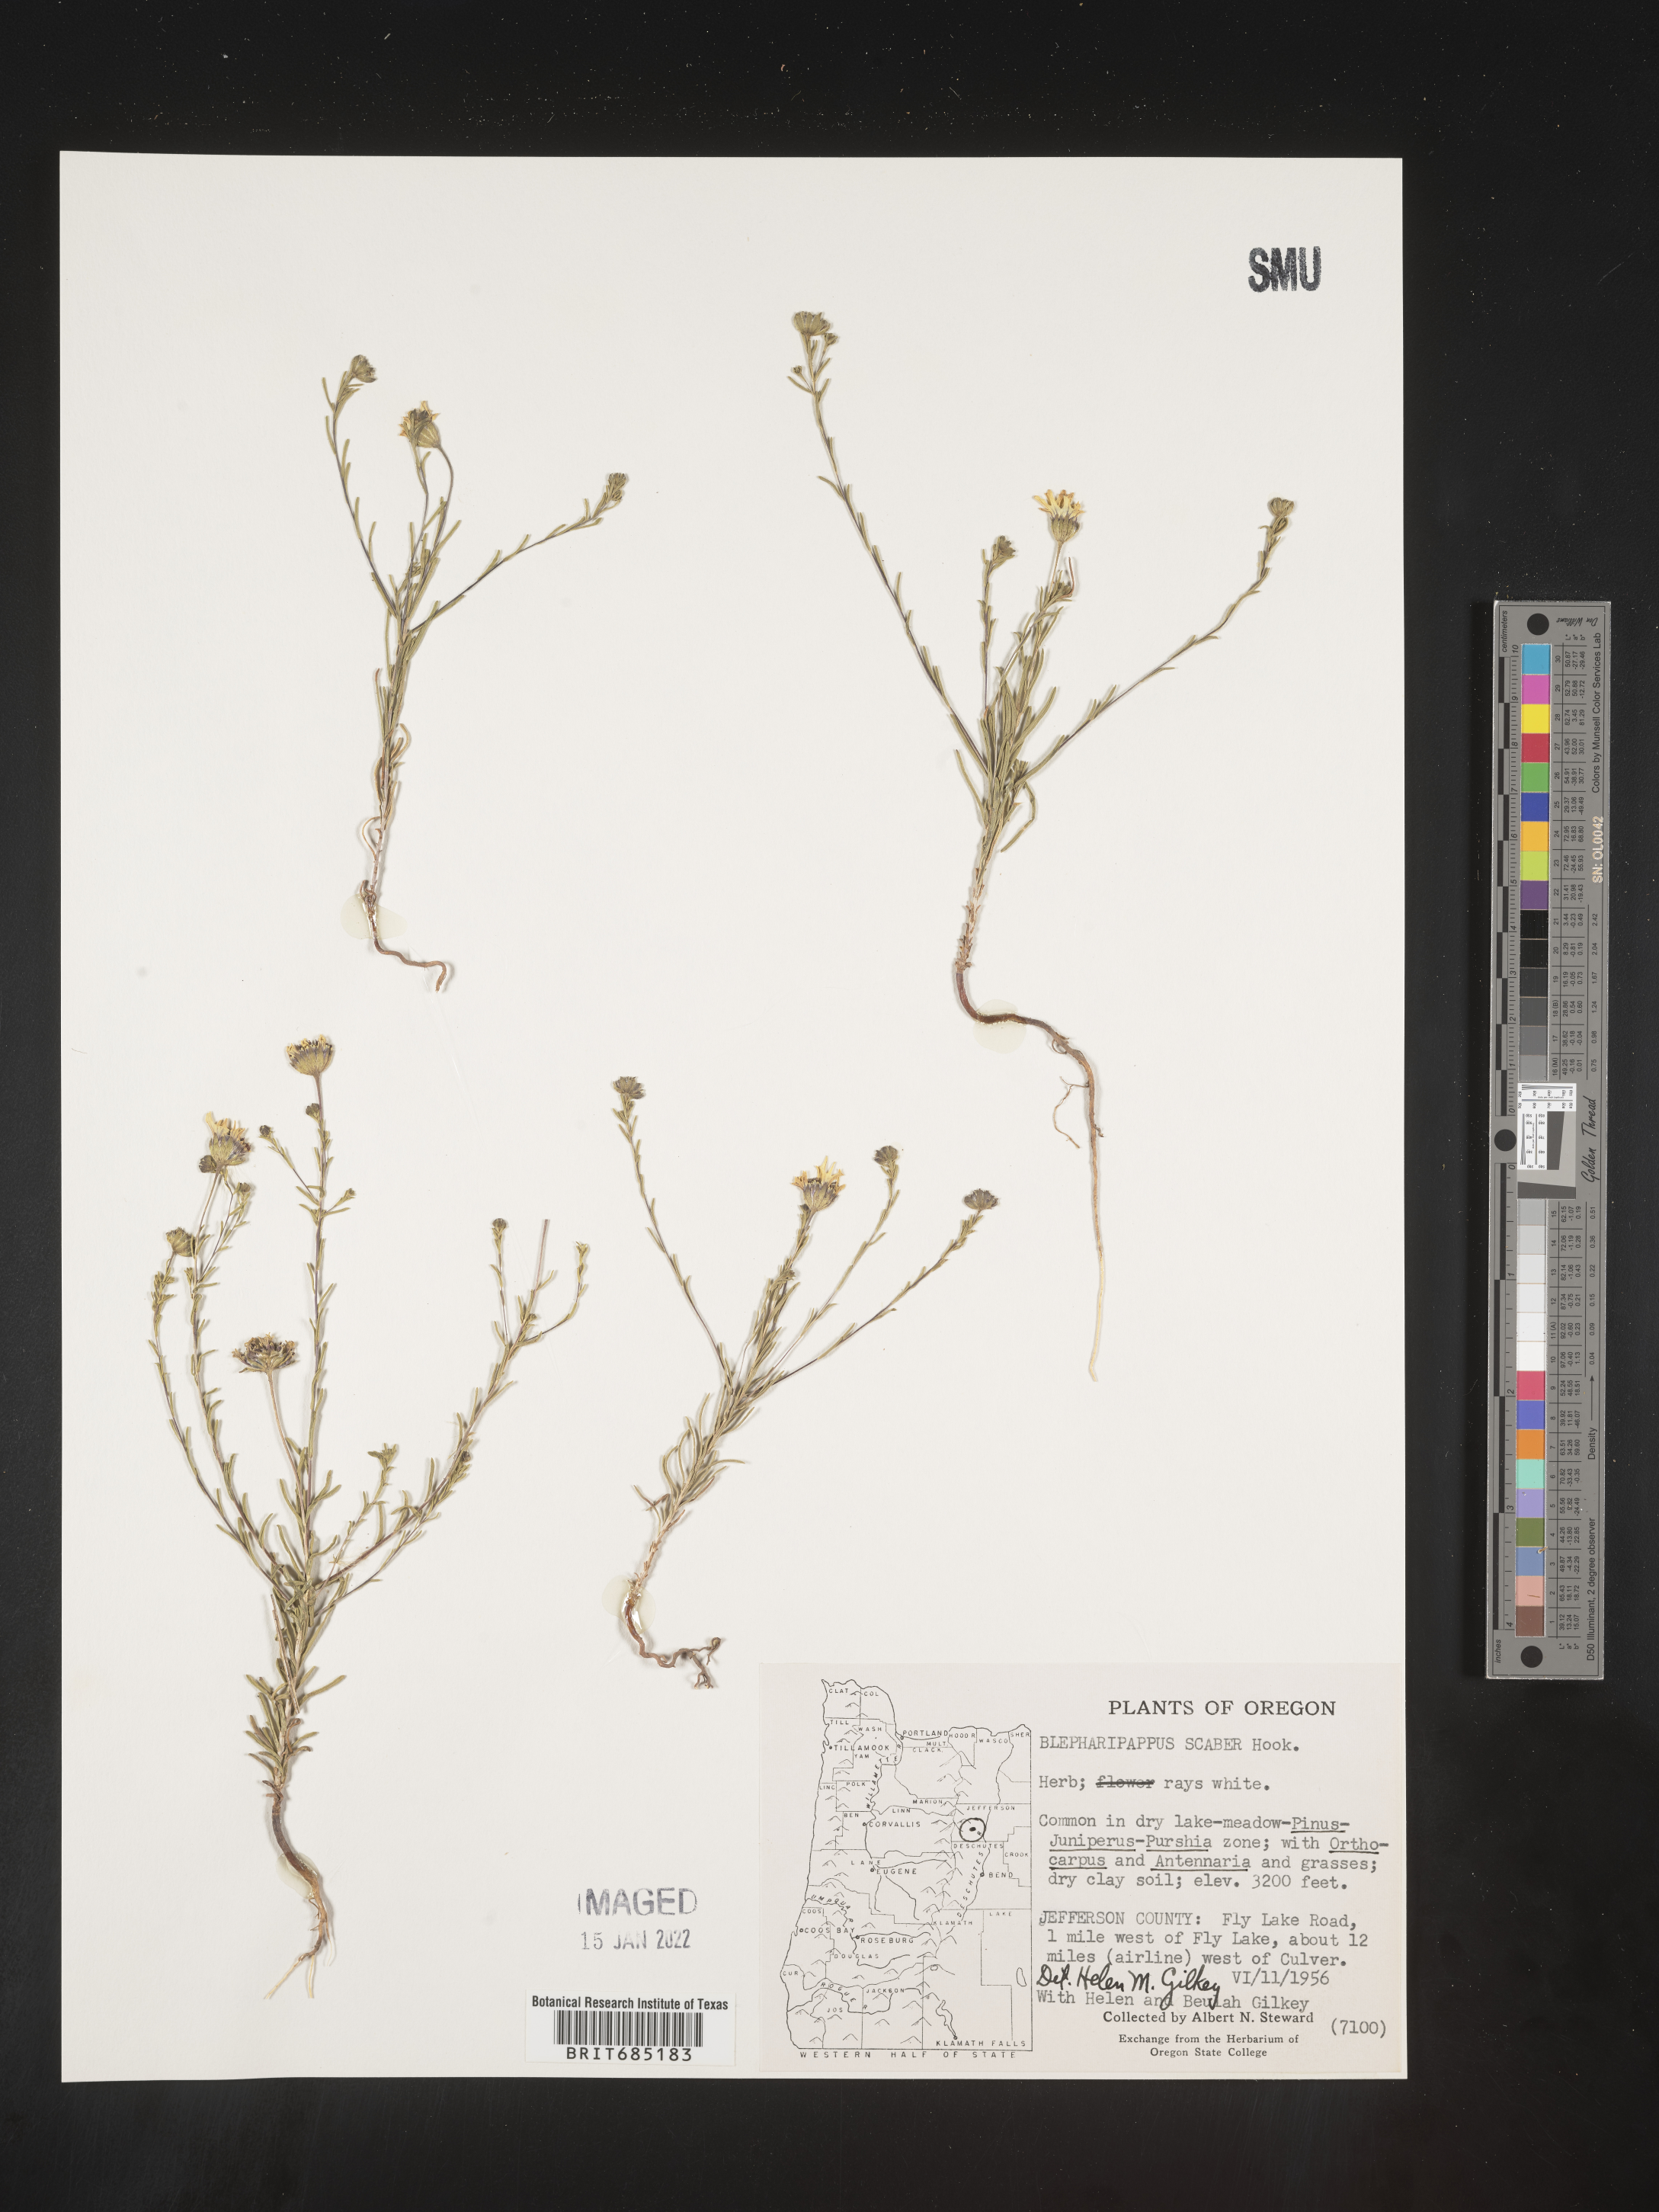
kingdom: Plantae
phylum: Tracheophyta
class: Magnoliopsida
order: Asterales
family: Asteraceae
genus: Blepharipappus
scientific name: Blepharipappus
